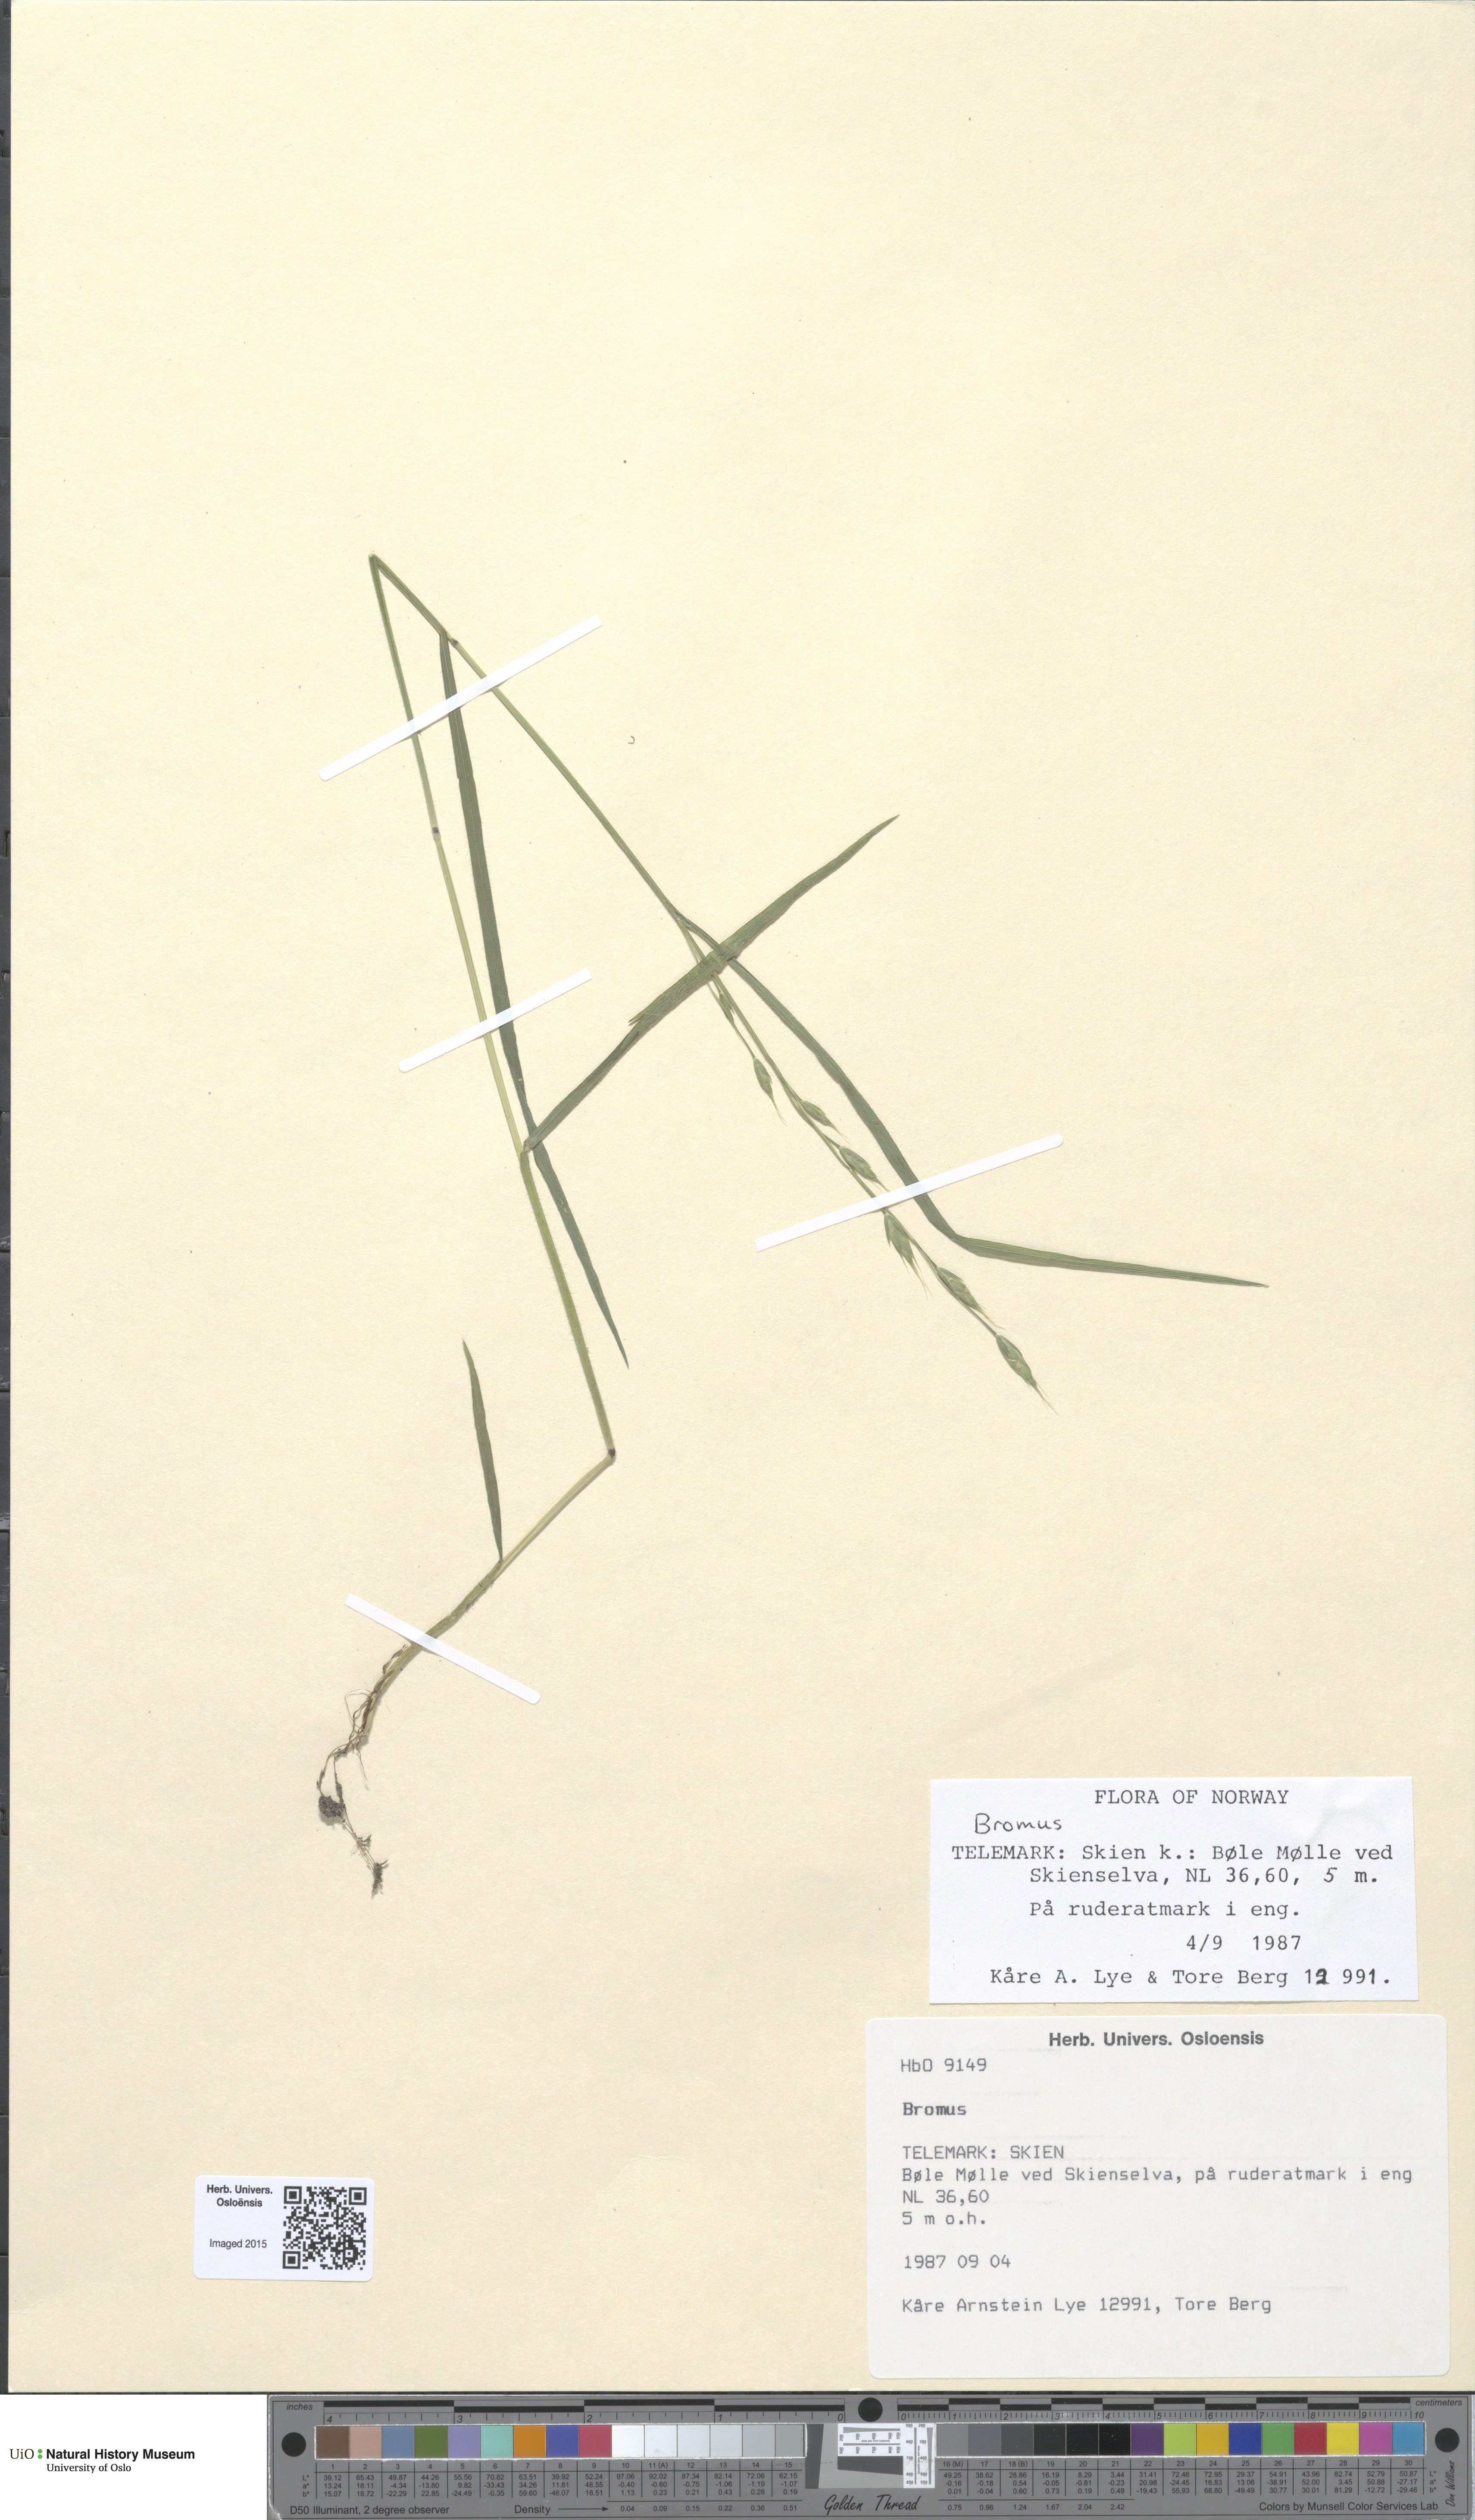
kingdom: Plantae
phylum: Tracheophyta
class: Liliopsida
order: Poales
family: Poaceae
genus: Bromus
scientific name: Bromus
